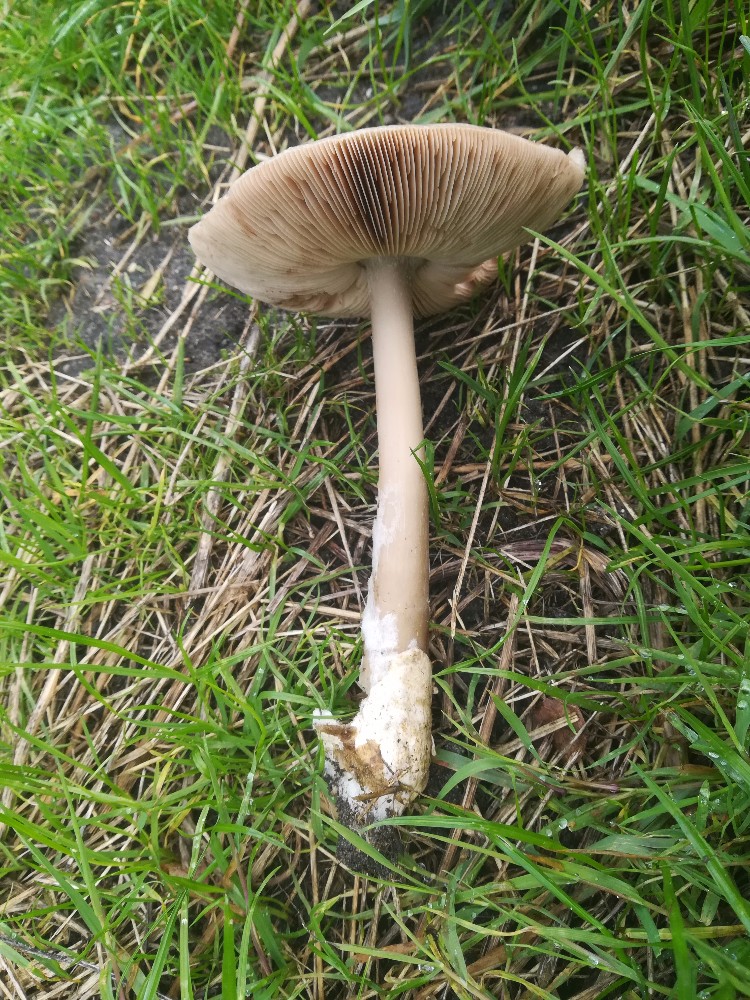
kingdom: Fungi
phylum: Basidiomycota
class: Agaricomycetes
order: Agaricales
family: Pluteaceae
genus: Volvopluteus
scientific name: Volvopluteus gloiocephalus
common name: høj posesvamp
